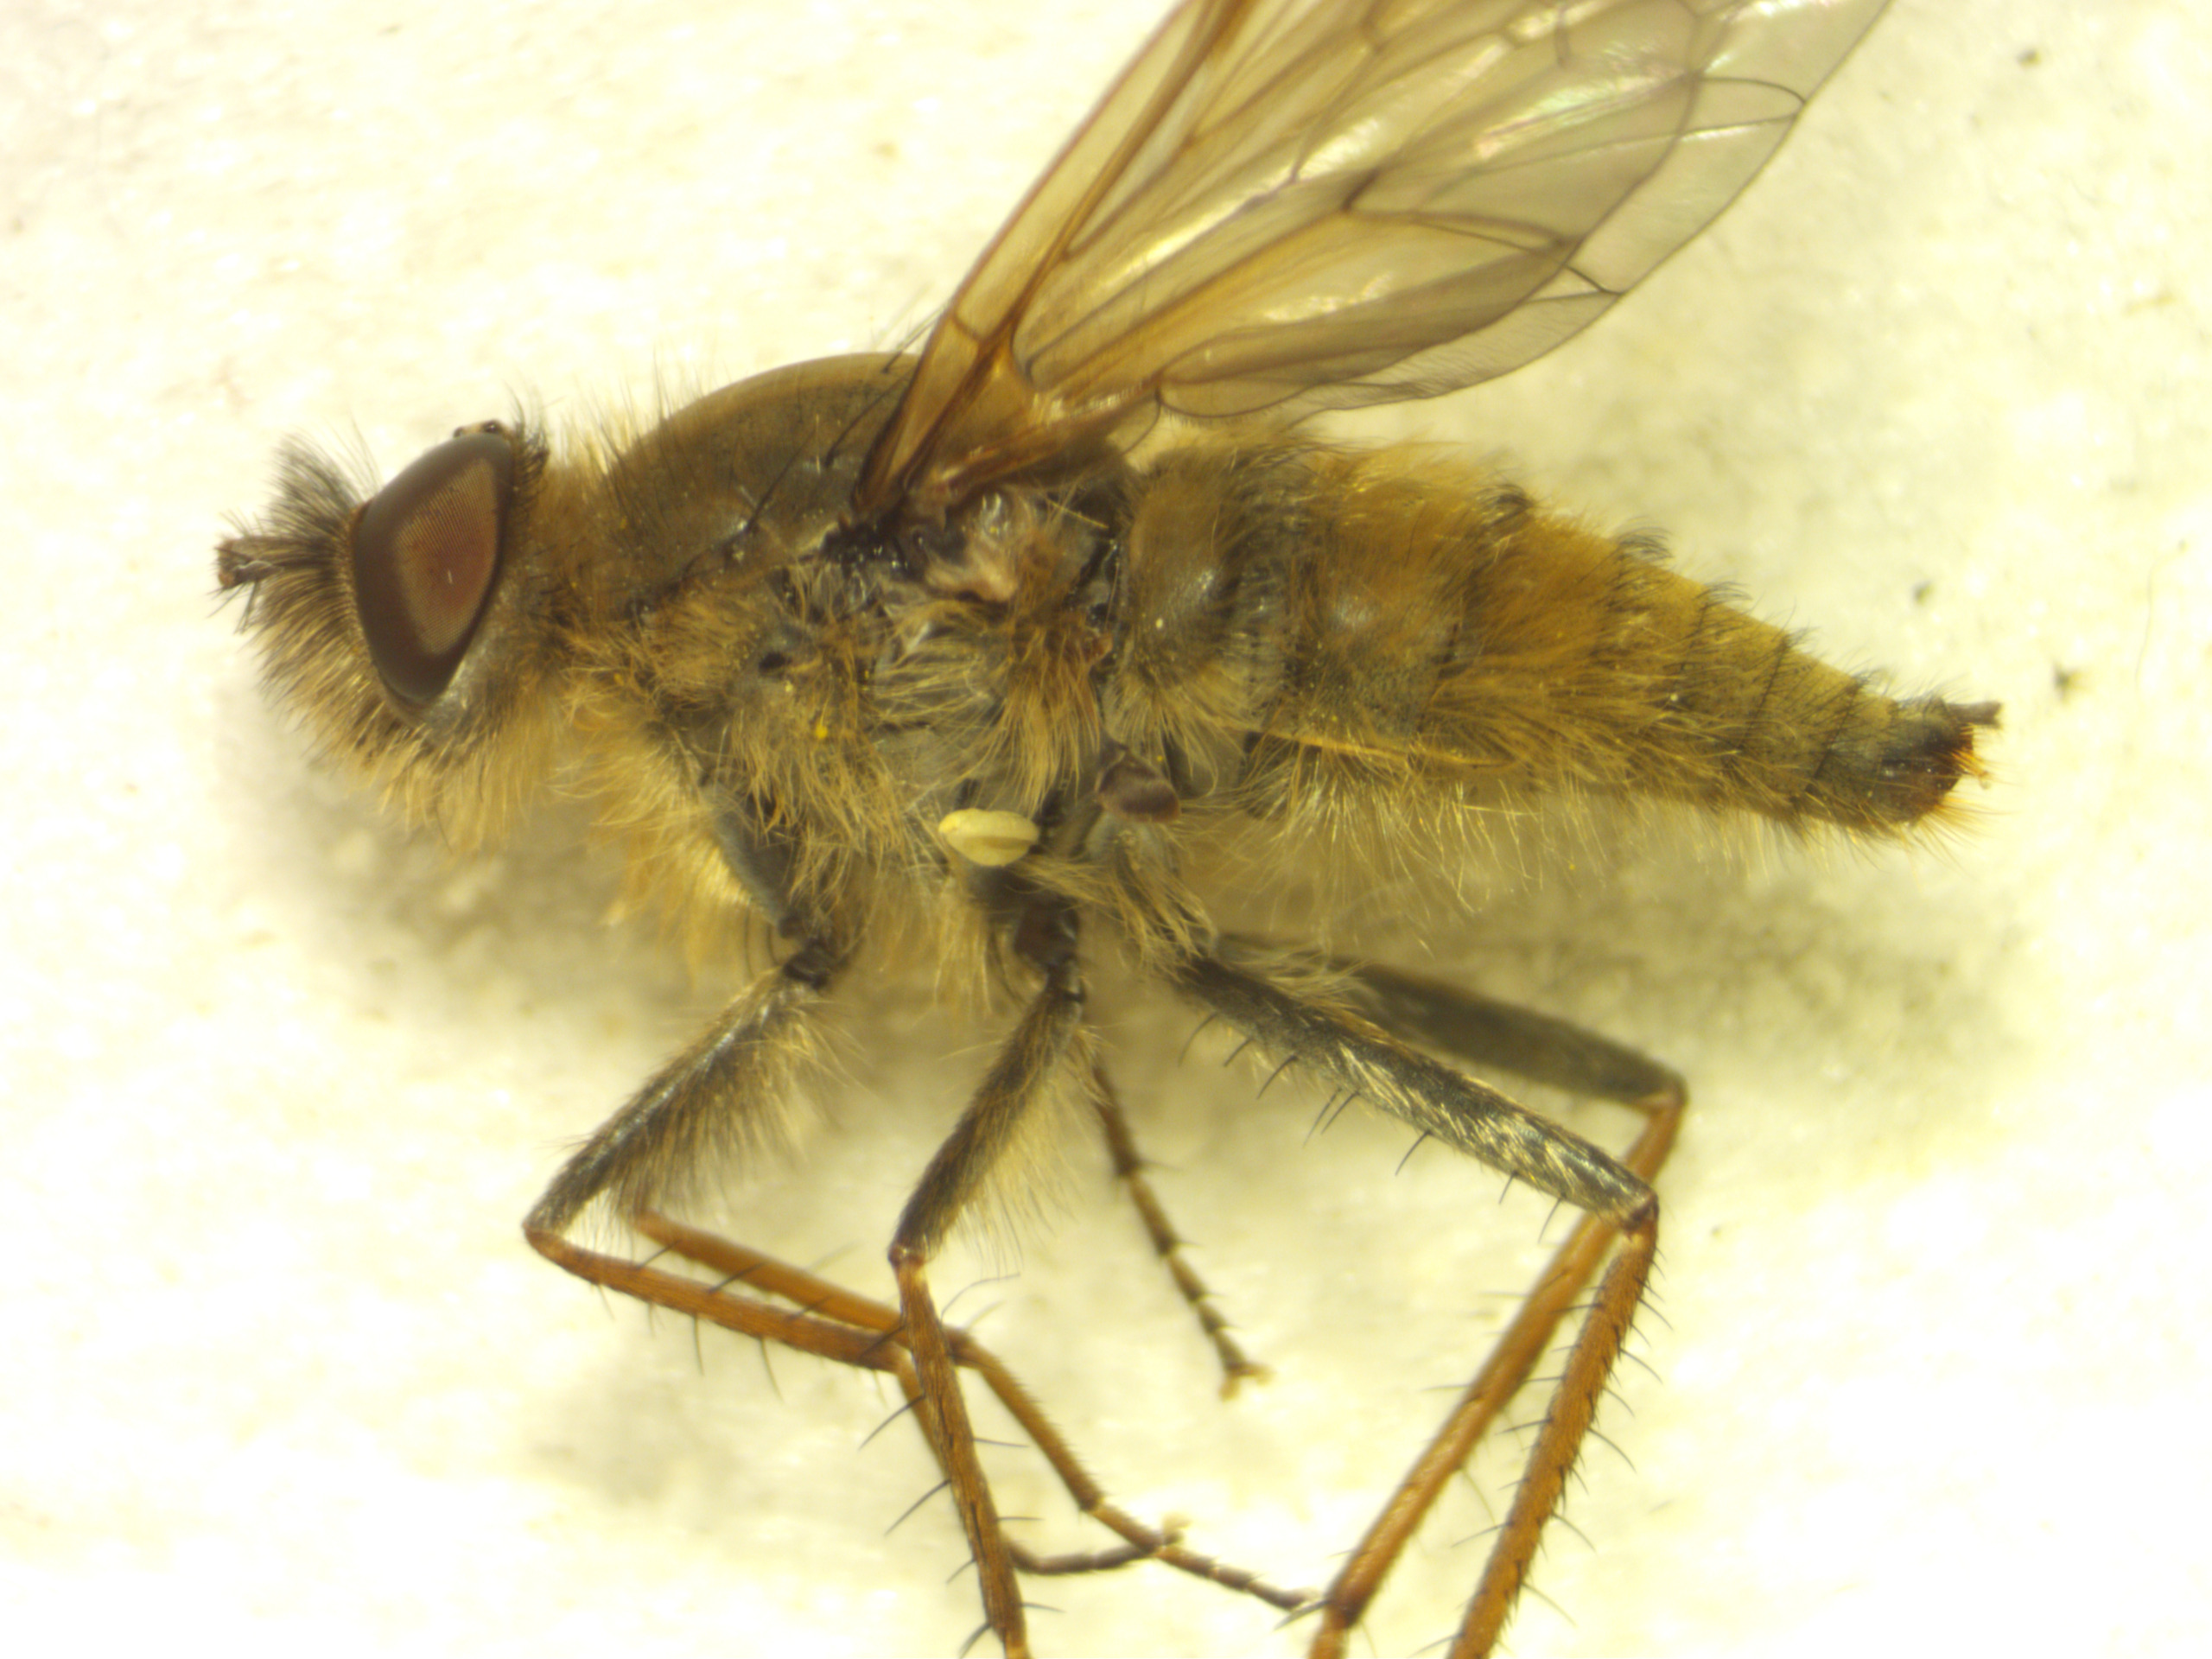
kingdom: Animalia
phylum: Arthropoda
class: Insecta
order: Diptera
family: Therevidae
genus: Thereva
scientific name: Thereva cinifera
